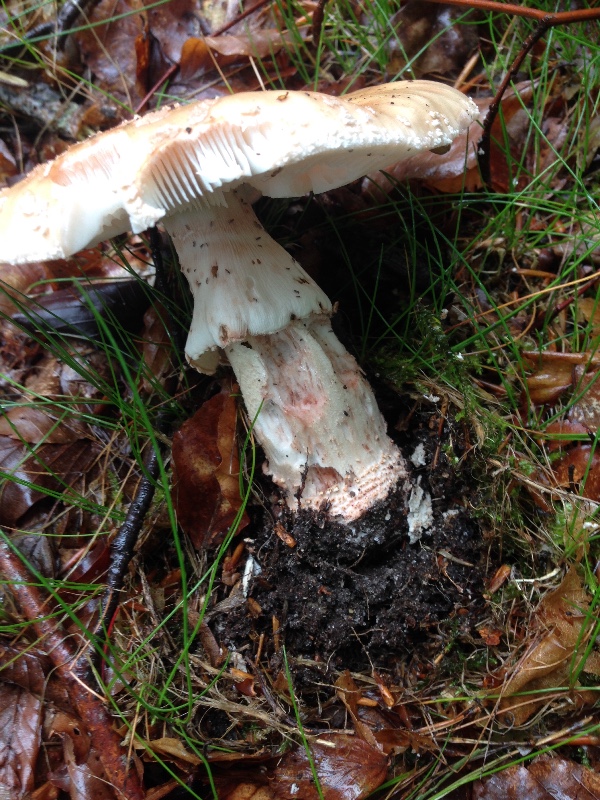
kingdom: Fungi
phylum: Basidiomycota
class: Agaricomycetes
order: Agaricales
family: Amanitaceae
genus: Amanita
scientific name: Amanita rubescens
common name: rødmende fluesvamp
